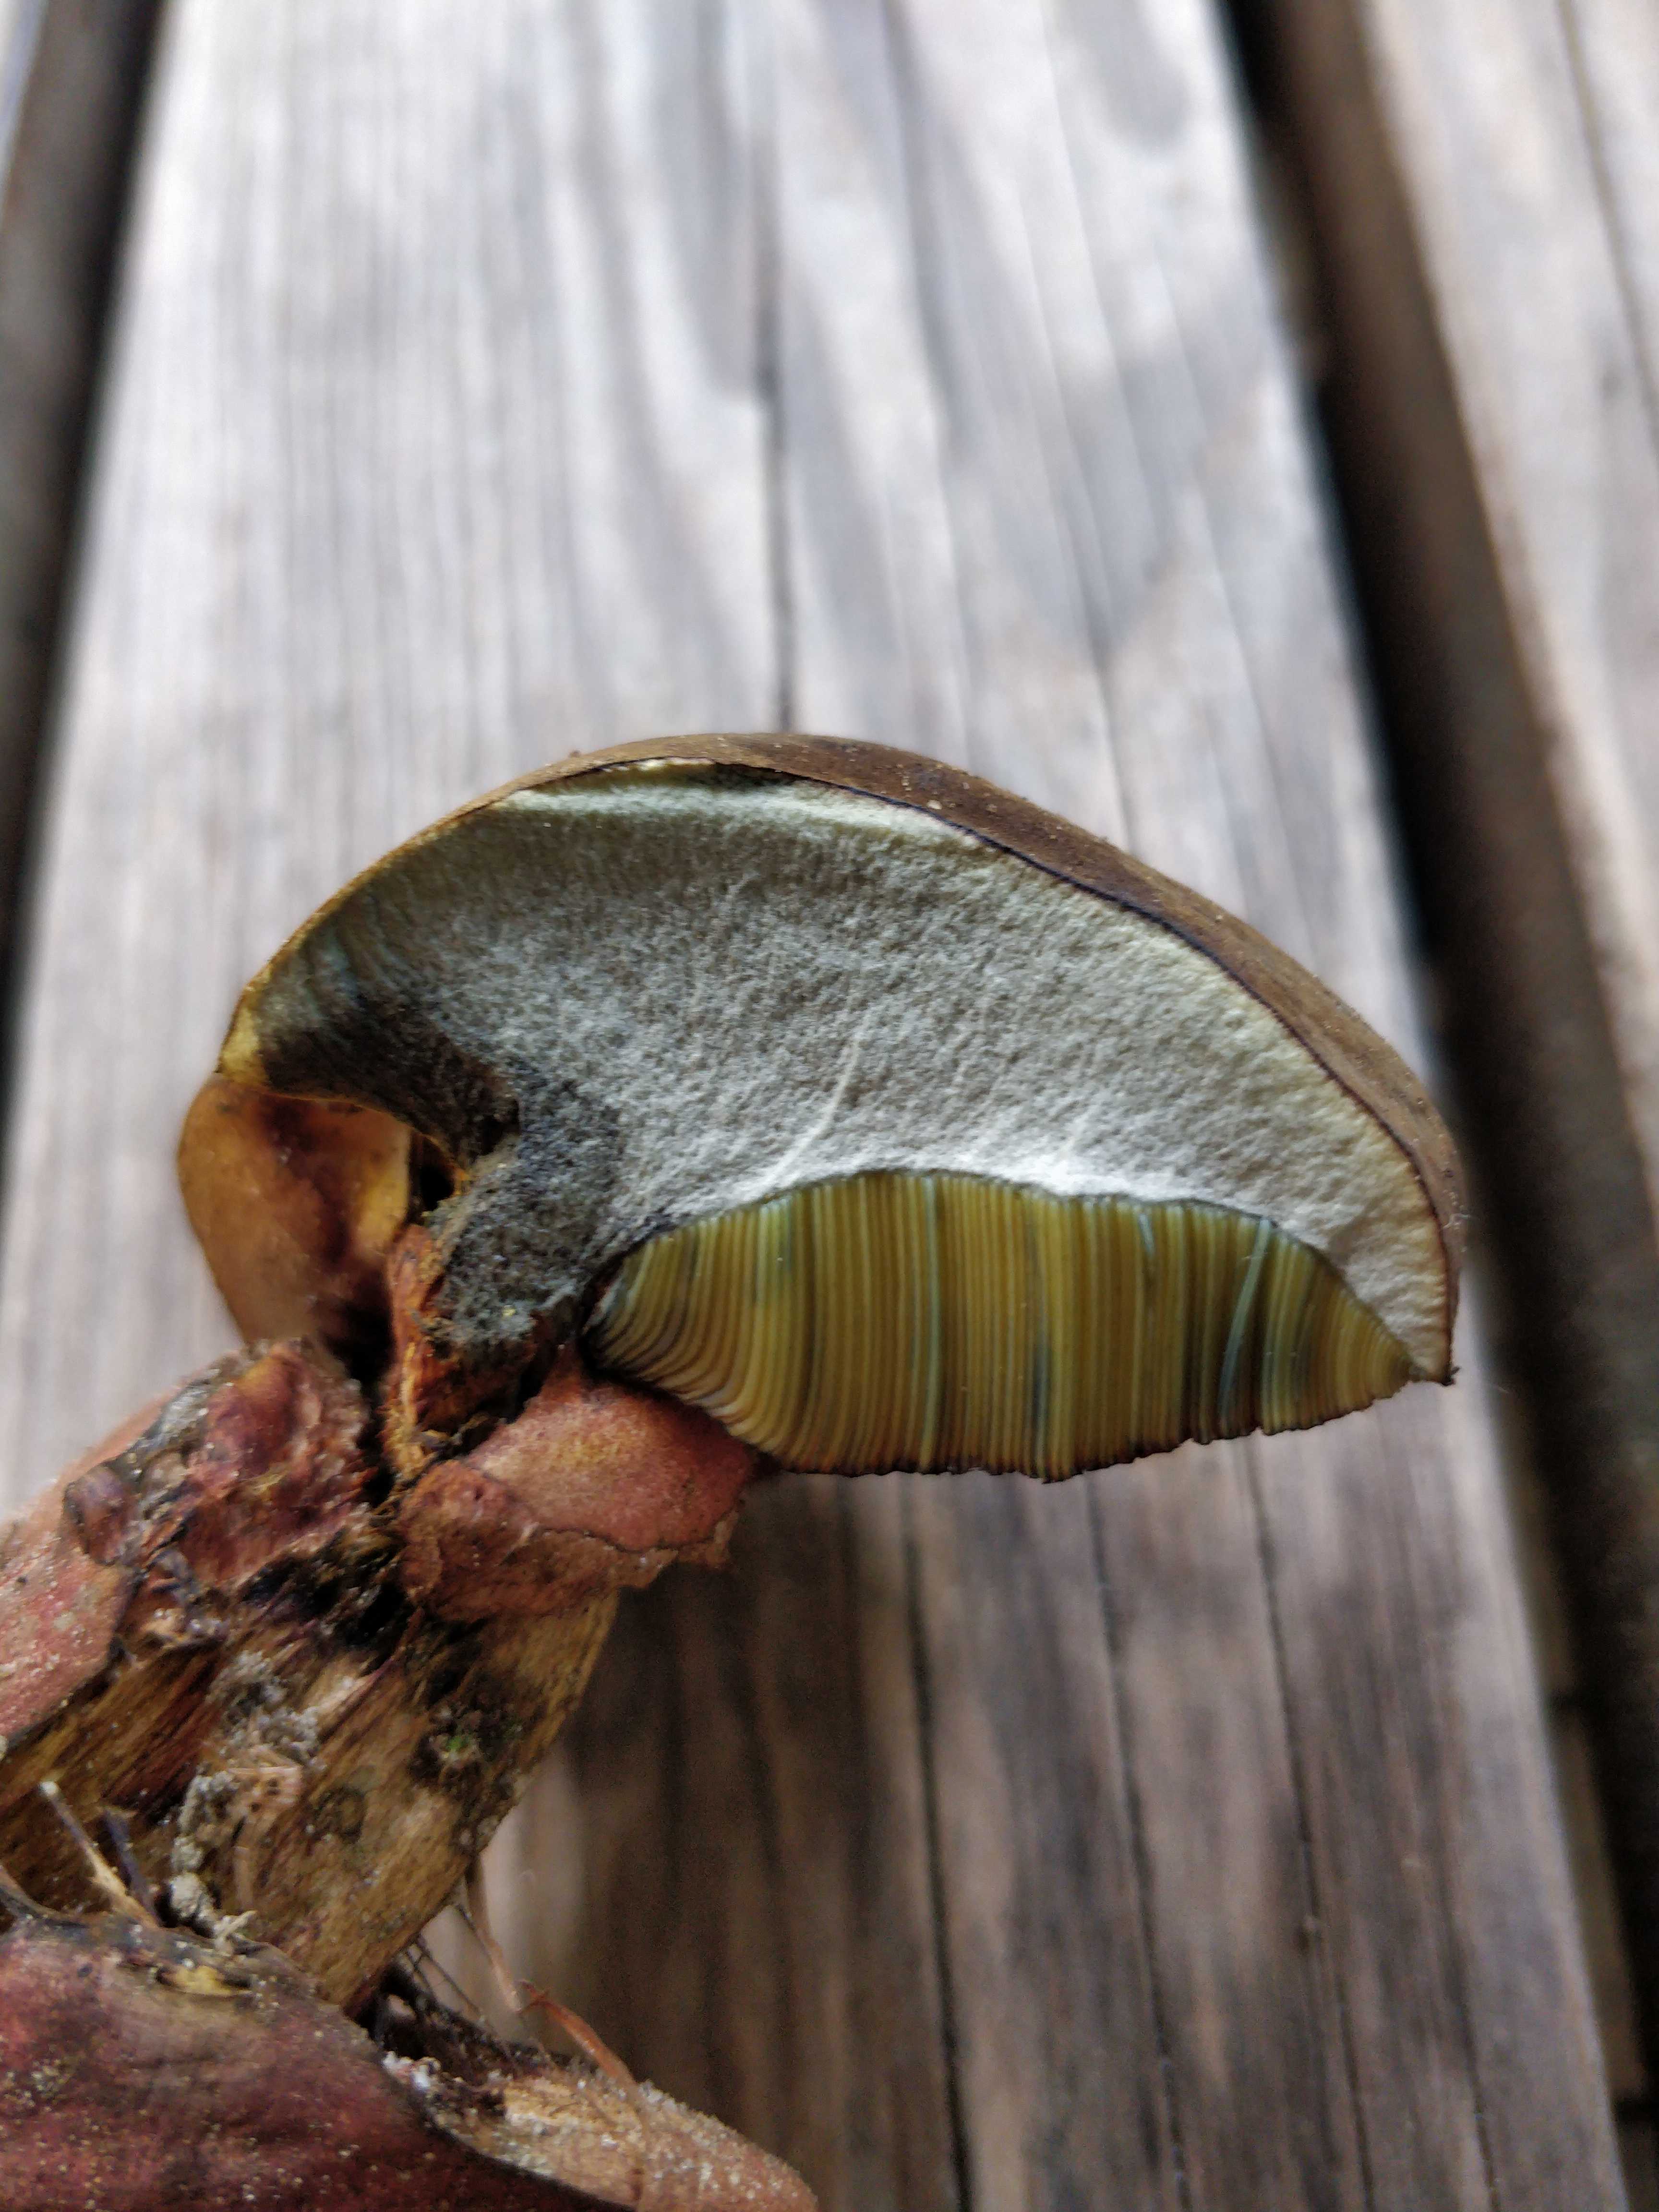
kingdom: Fungi
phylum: Basidiomycota
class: Agaricomycetes
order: Boletales
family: Boletaceae
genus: Neoboletus
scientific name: Neoboletus erythropus
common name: punktstokket indigorørhat
